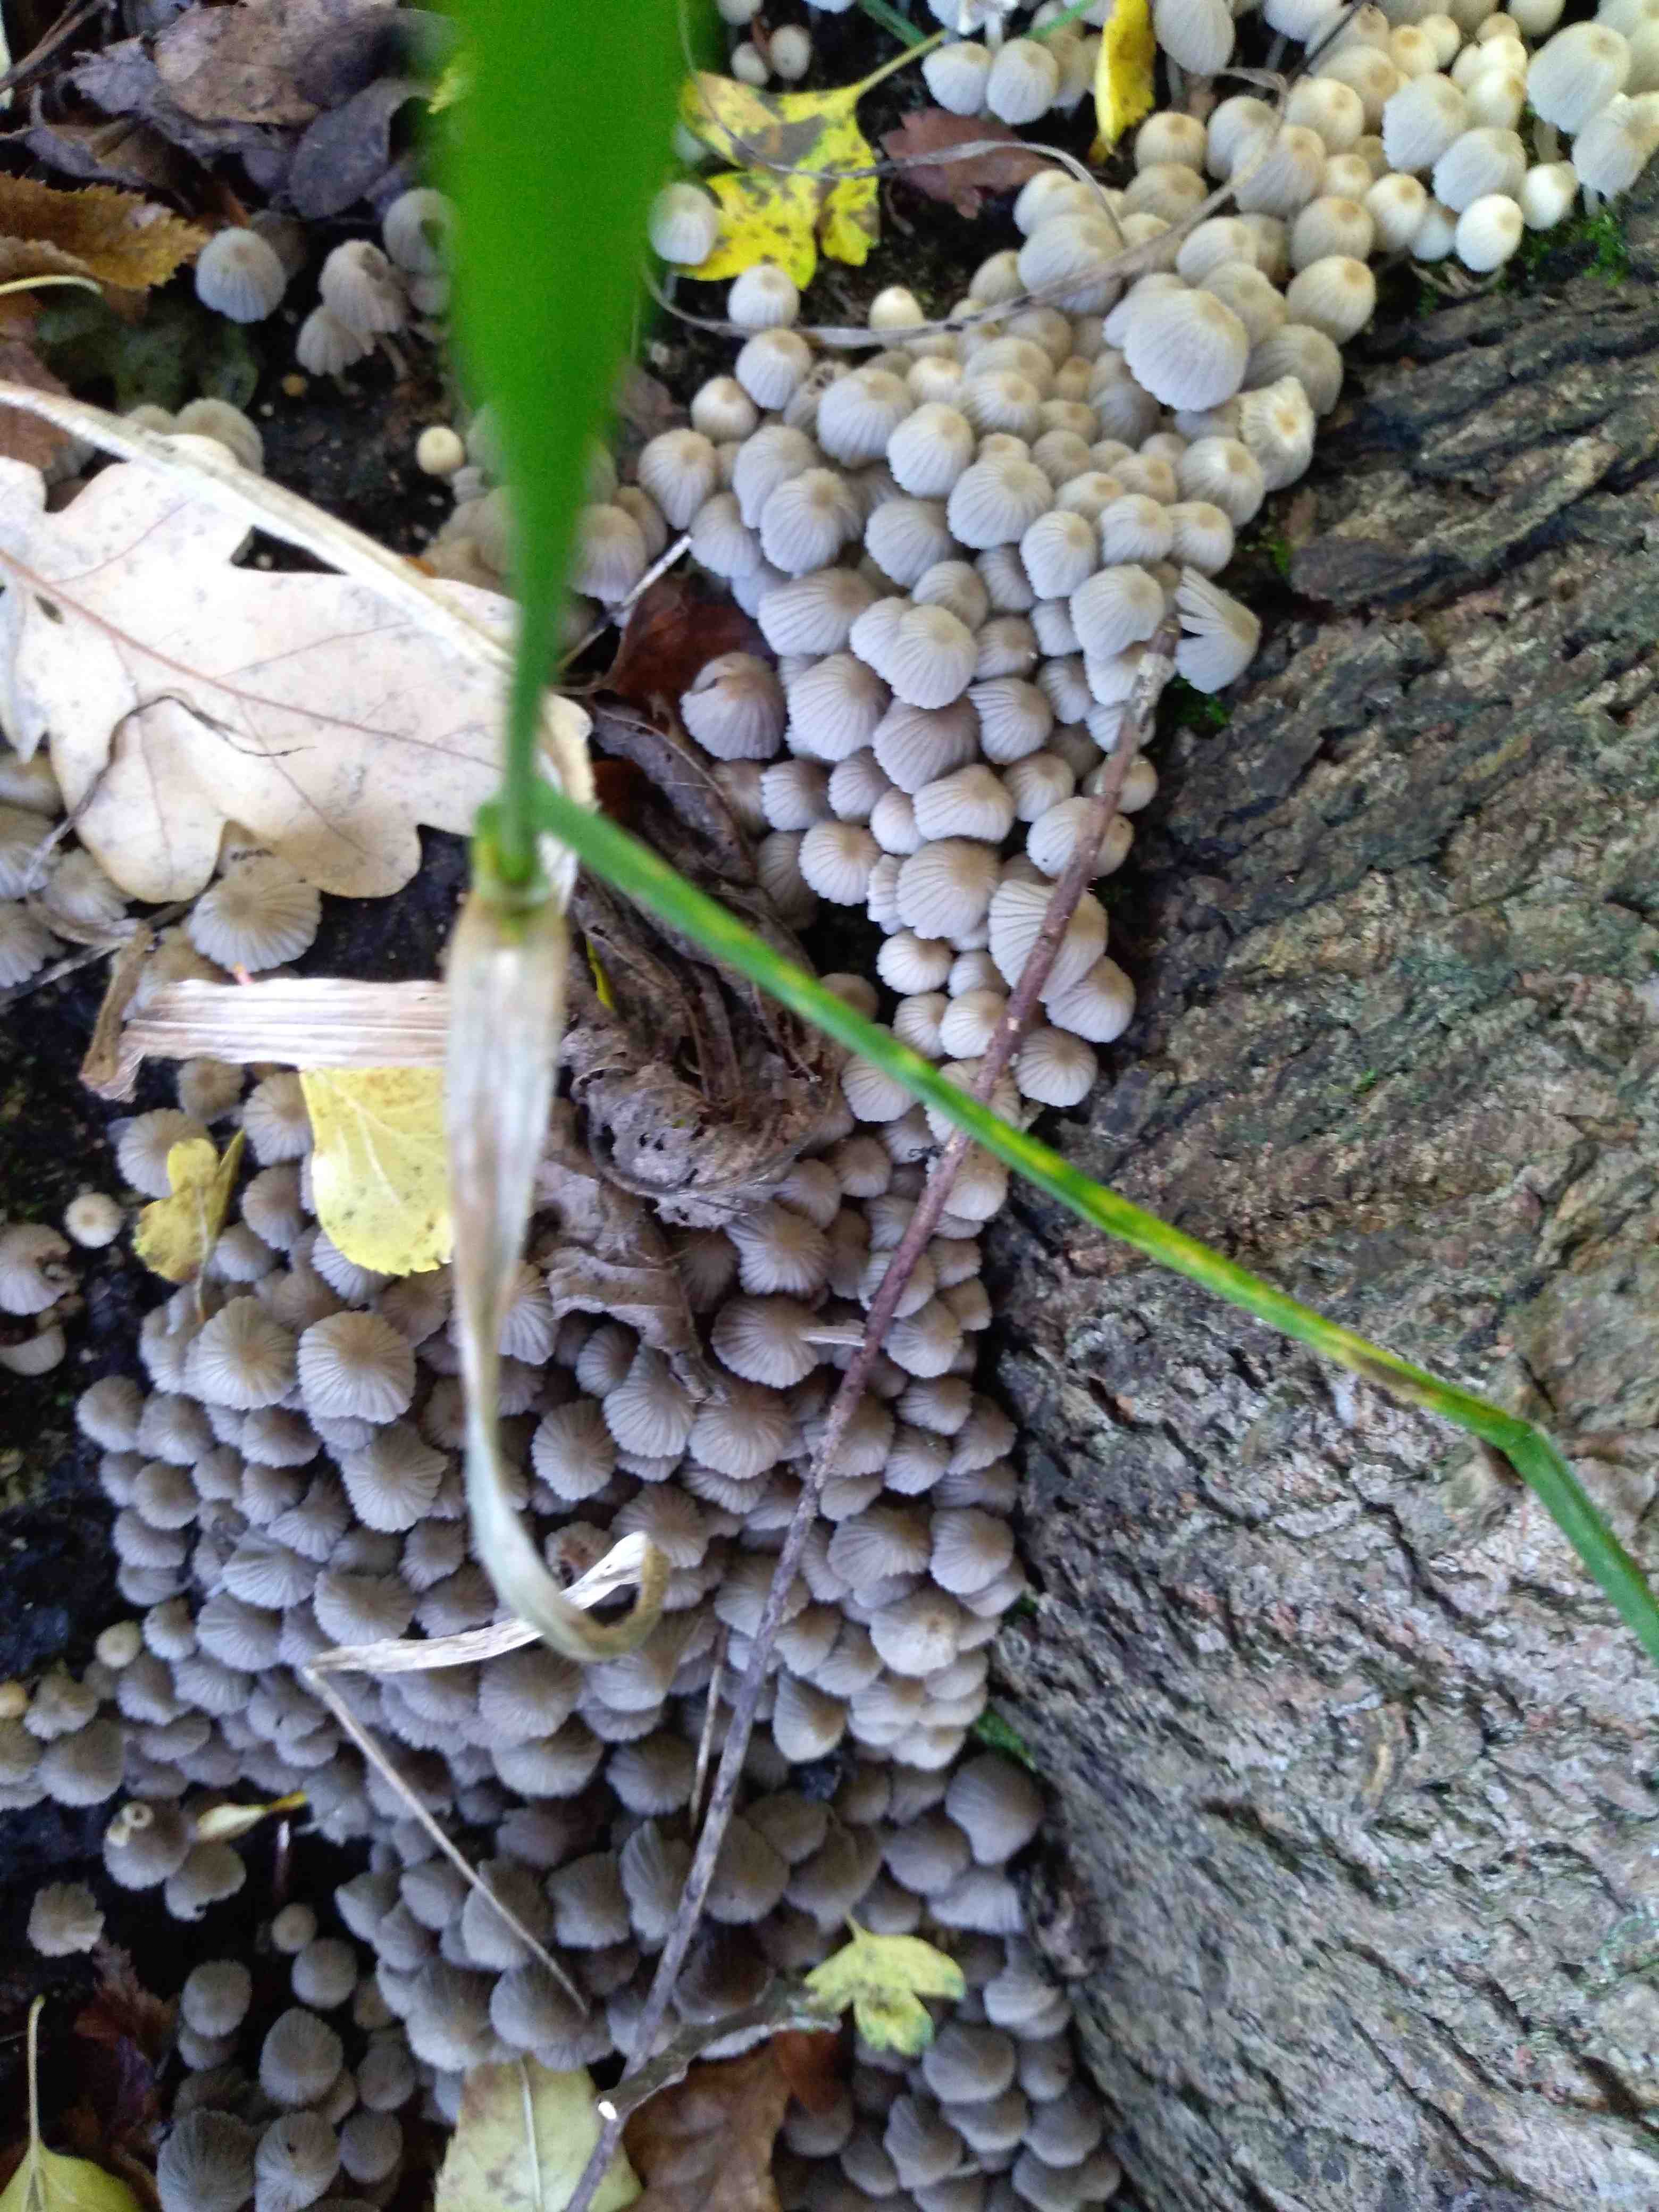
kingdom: Fungi
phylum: Basidiomycota
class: Agaricomycetes
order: Agaricales
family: Psathyrellaceae
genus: Coprinellus
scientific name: Coprinellus disseminatus
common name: bredsået blækhat
